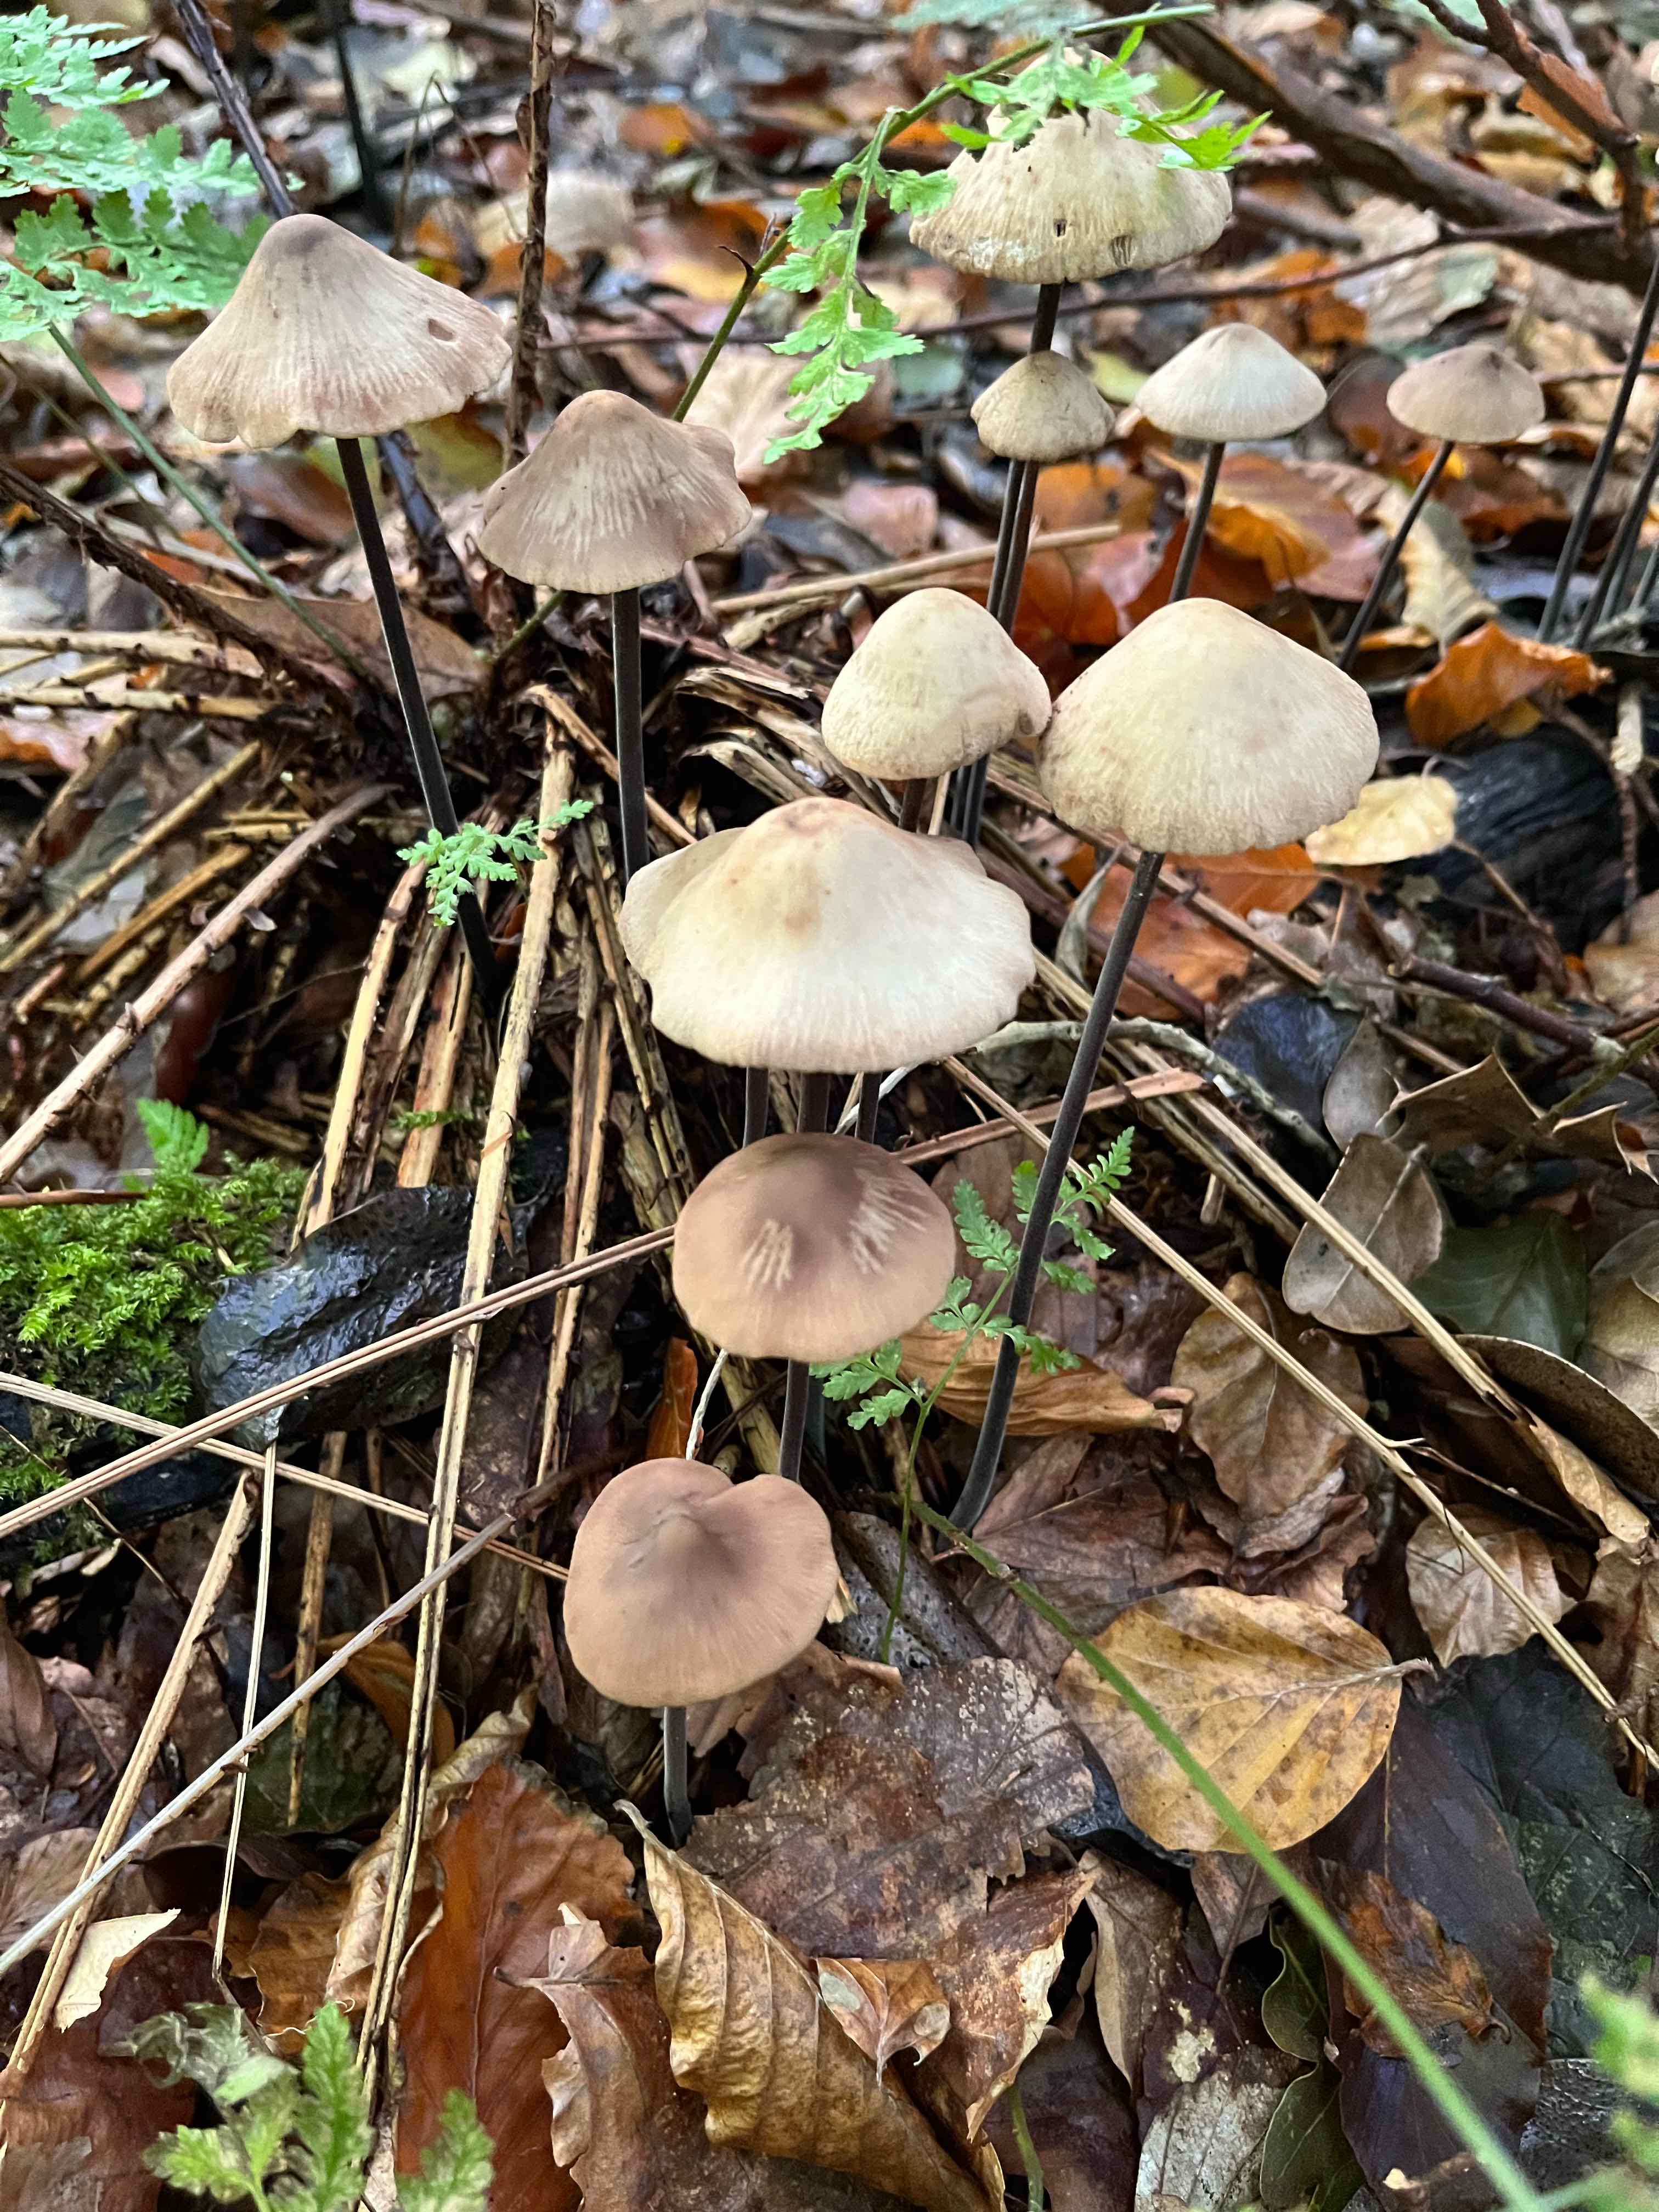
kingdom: Fungi
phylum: Basidiomycota
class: Agaricomycetes
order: Agaricales
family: Omphalotaceae
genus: Mycetinis
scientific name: Mycetinis alliaceus
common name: stor løghat
